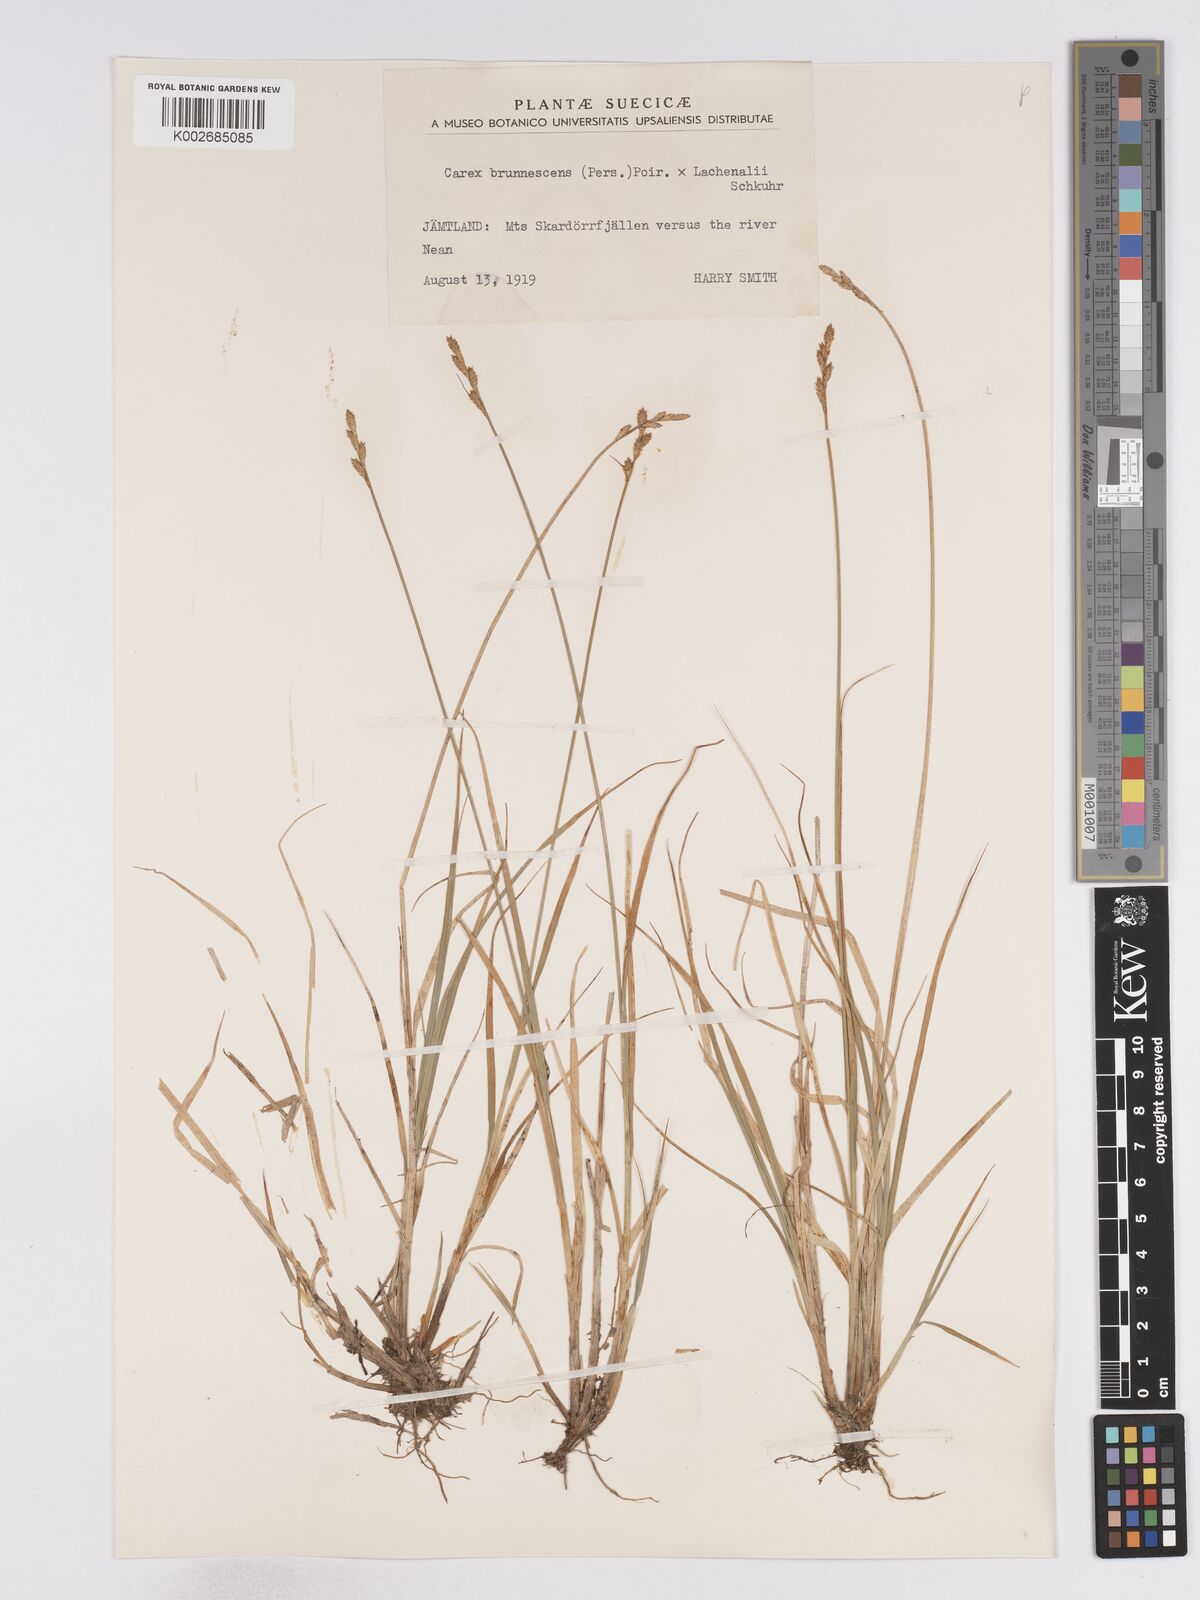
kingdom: Plantae
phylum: Tracheophyta
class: Liliopsida
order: Poales
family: Cyperaceae
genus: Carex
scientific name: Carex brunnescens
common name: Brown sedge
